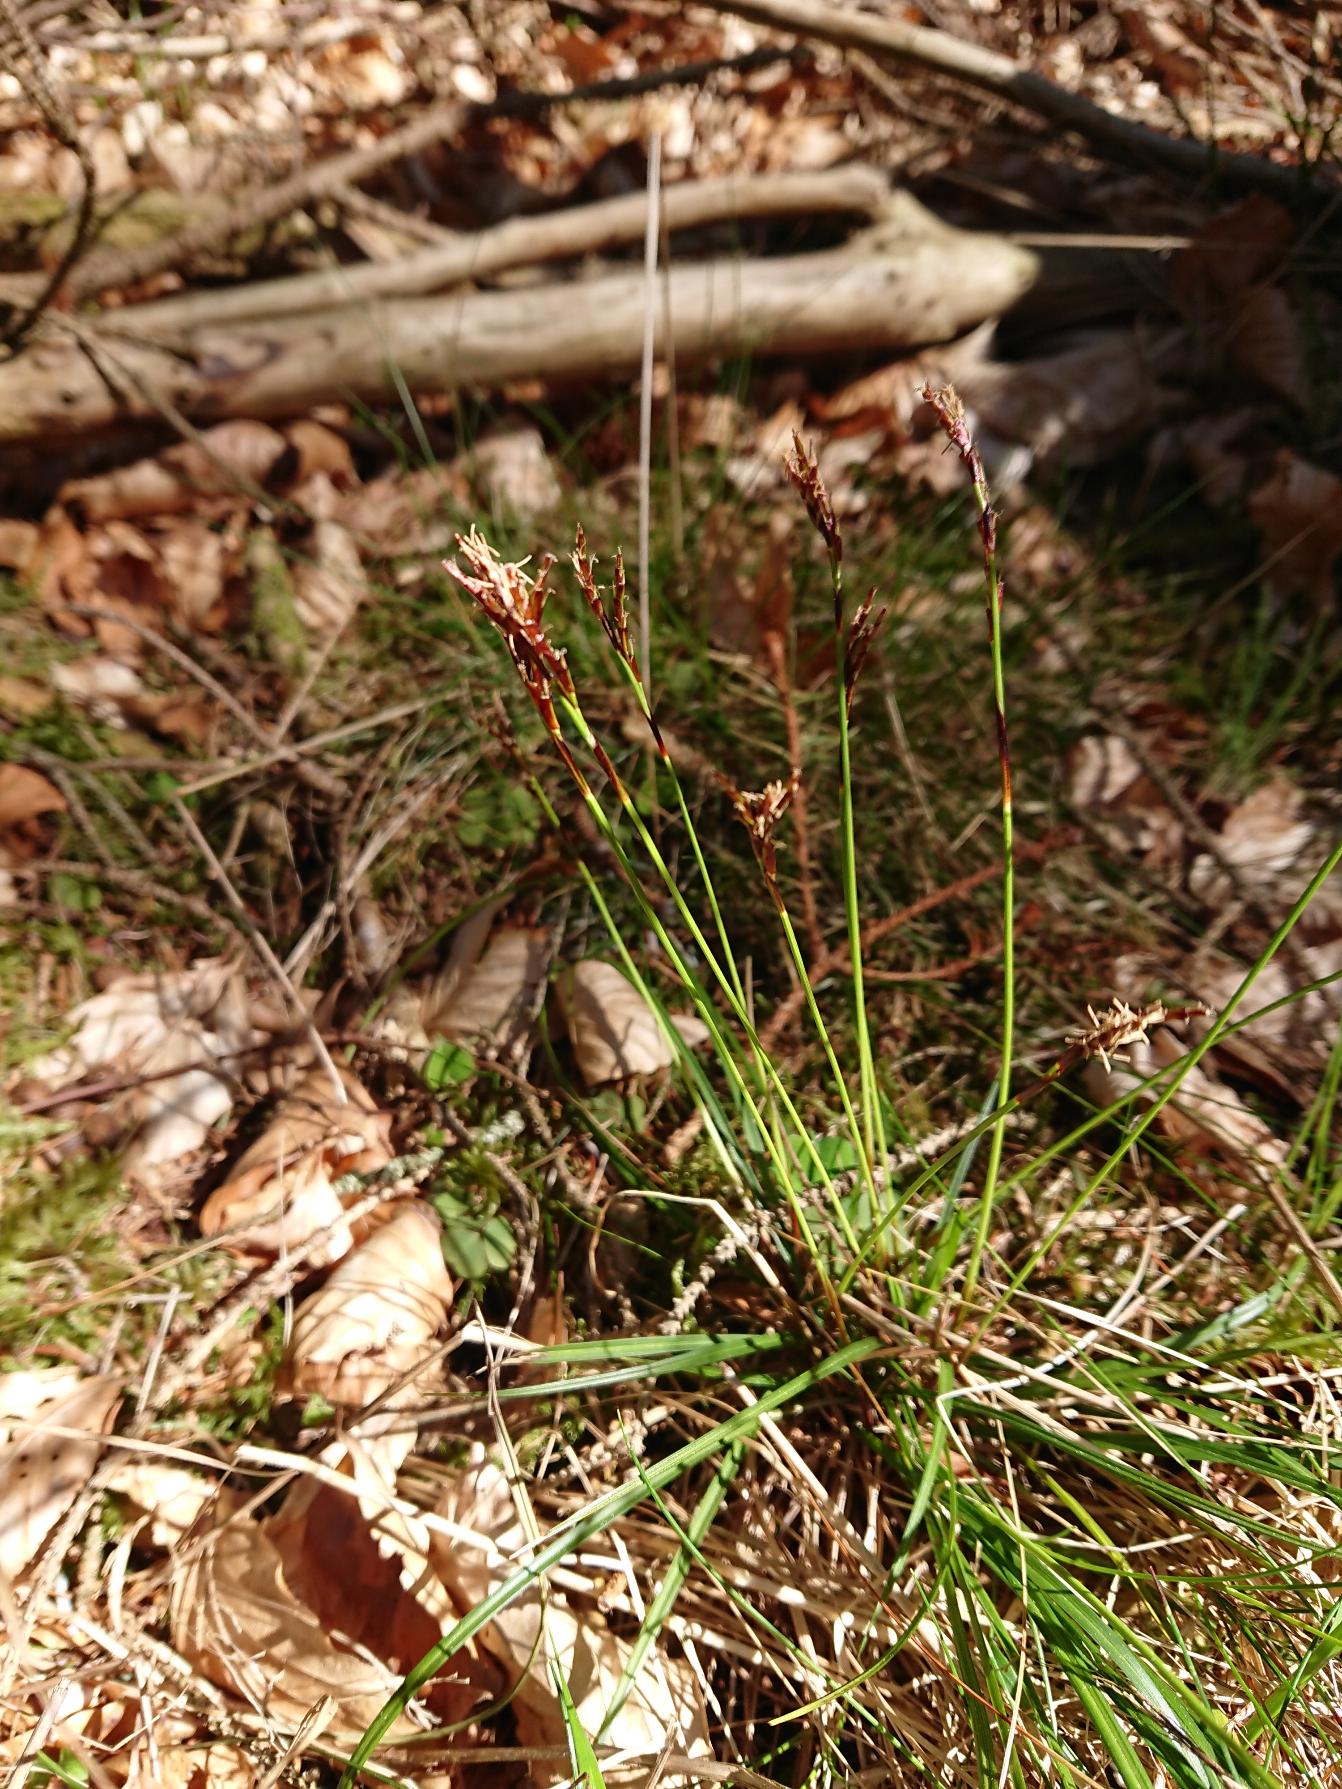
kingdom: Plantae
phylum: Tracheophyta
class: Liliopsida
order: Poales
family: Cyperaceae
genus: Carex
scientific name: Carex digitata
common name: Finger-star
